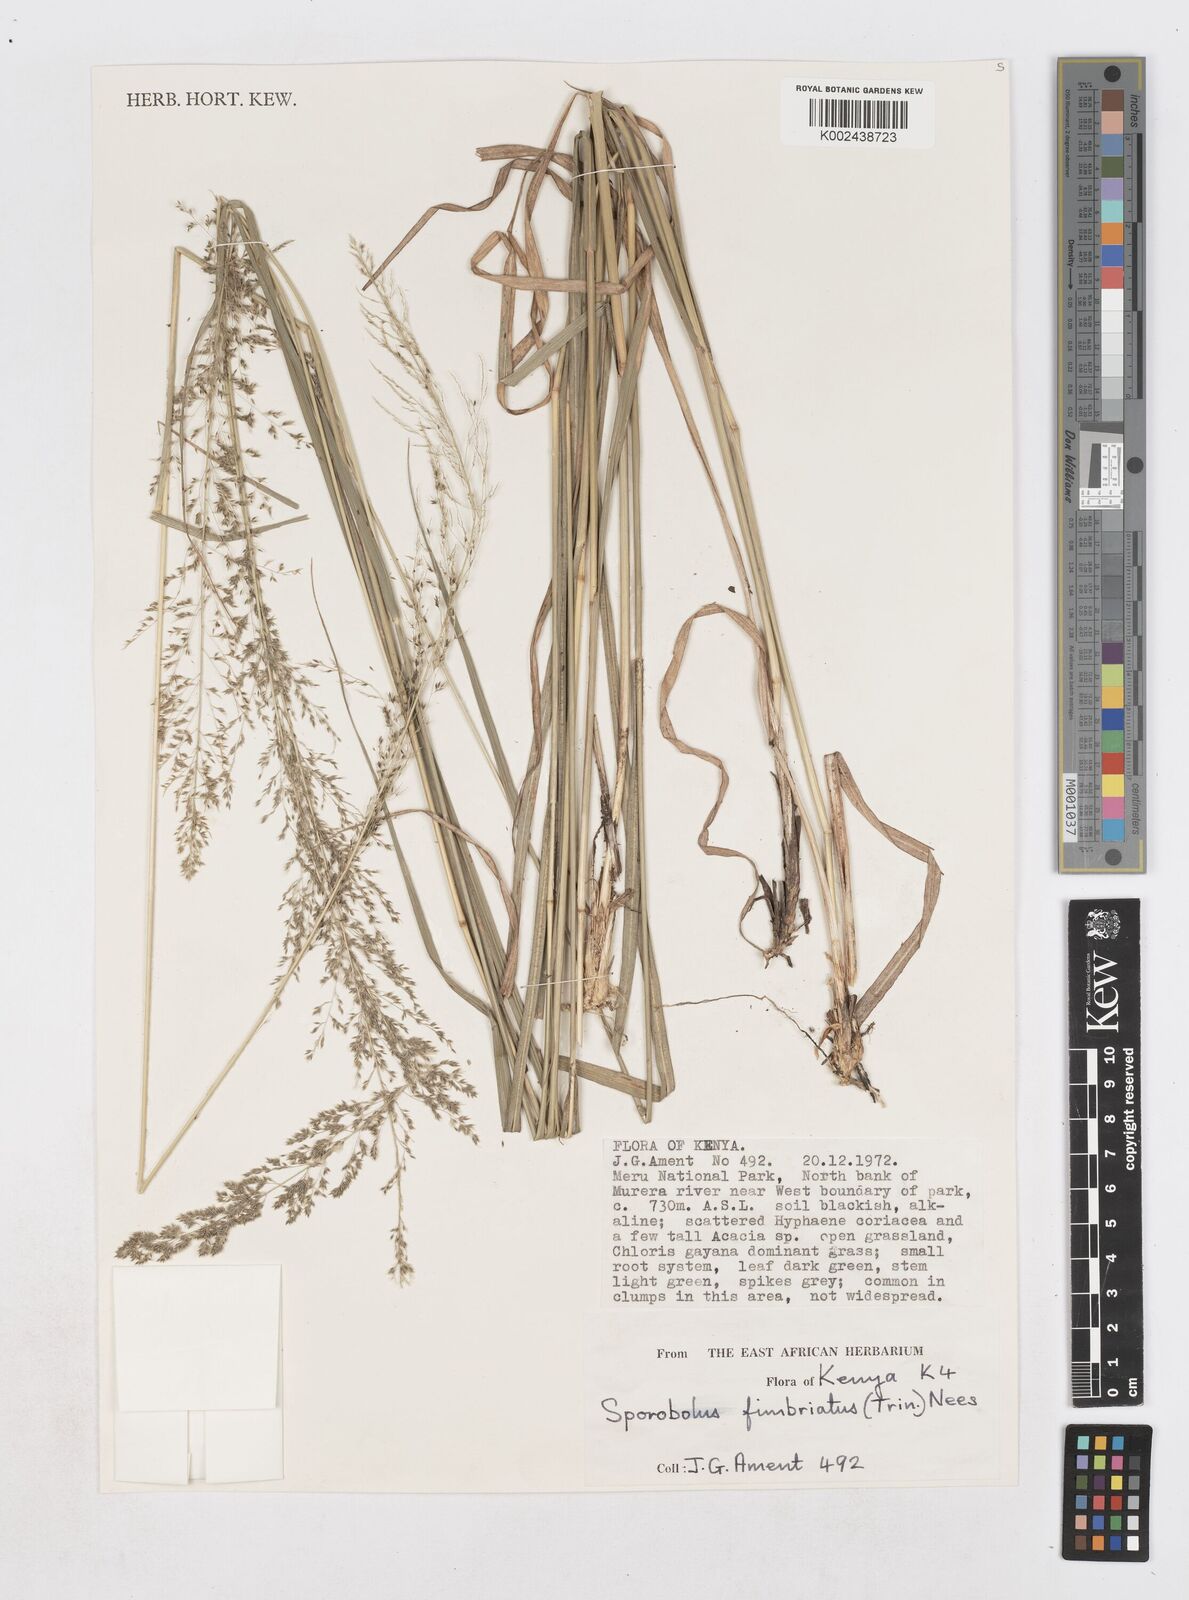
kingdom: Plantae
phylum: Tracheophyta
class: Liliopsida
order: Poales
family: Poaceae
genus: Sporobolus
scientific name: Sporobolus fimbriatus
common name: Fringed dropseed
